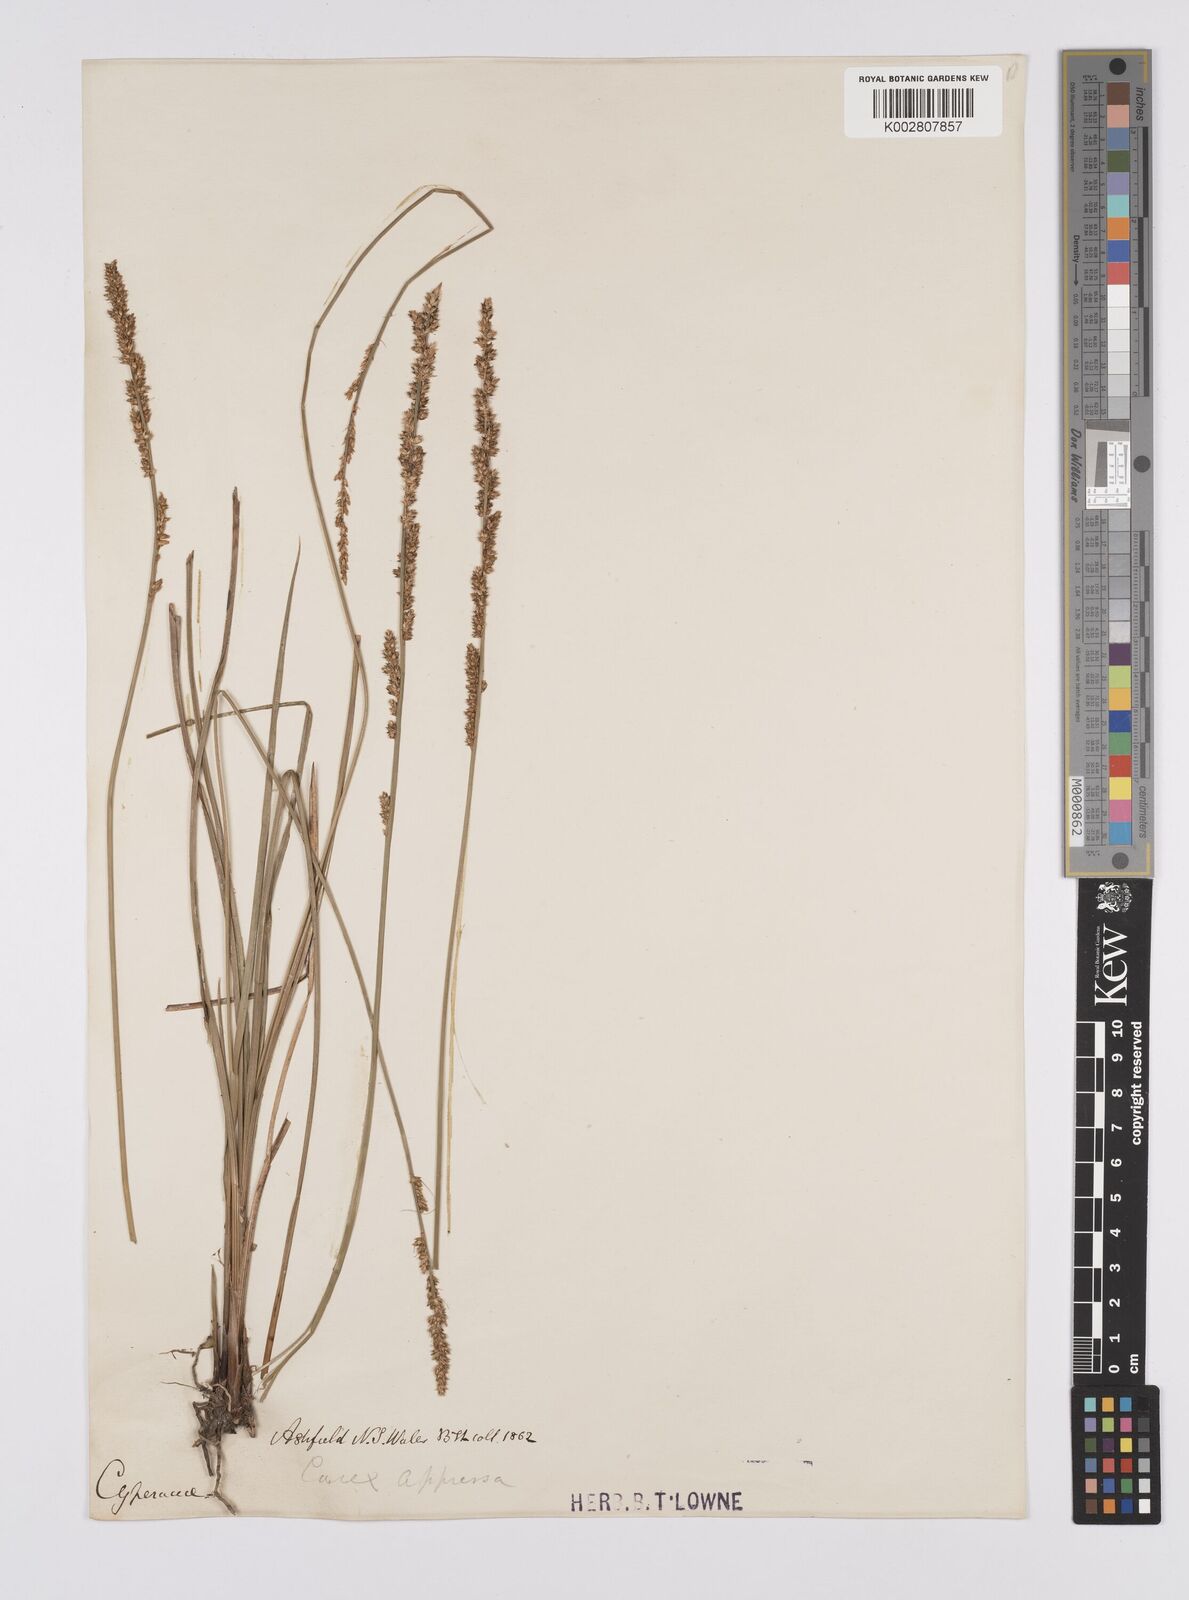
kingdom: Plantae
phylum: Tracheophyta
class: Liliopsida
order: Poales
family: Cyperaceae
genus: Carex
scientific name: Carex appressa
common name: Tussock sedge
